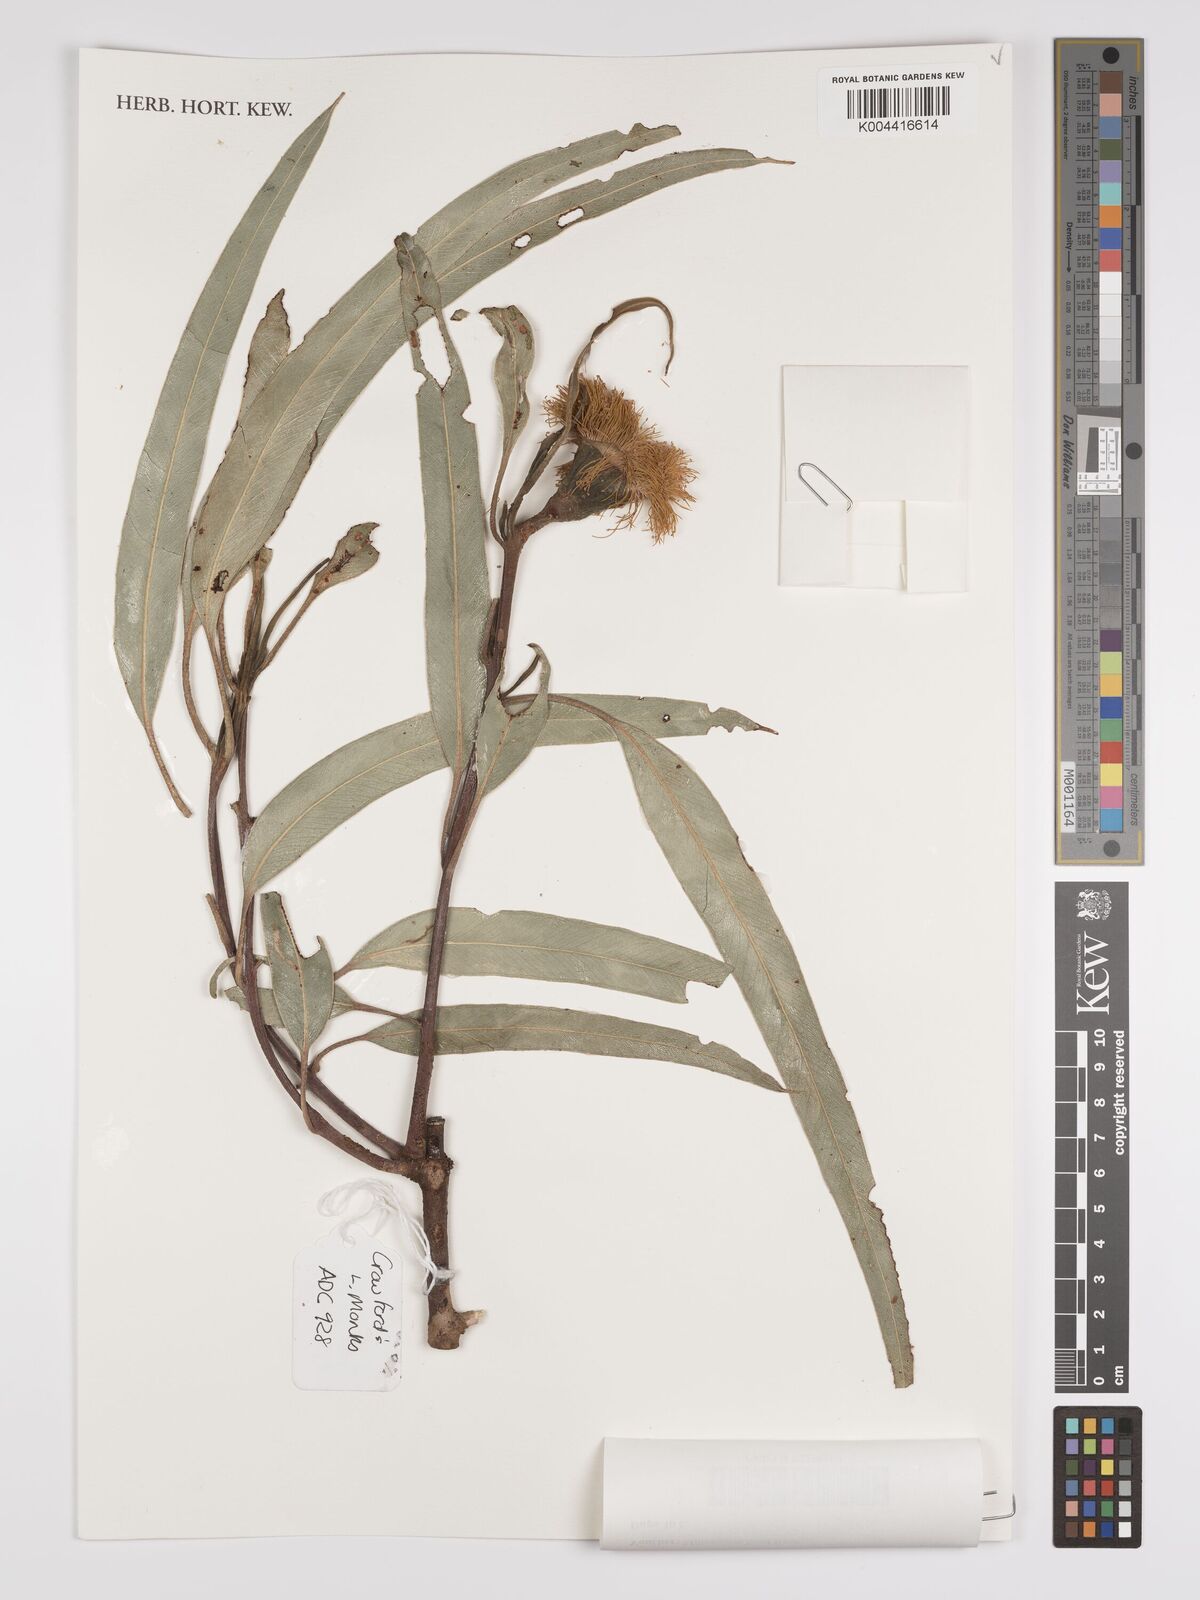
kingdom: Plantae
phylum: Tracheophyta
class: Magnoliopsida
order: Myrtales
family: Myrtaceae
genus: Eucalyptus
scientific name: Eucalyptus
